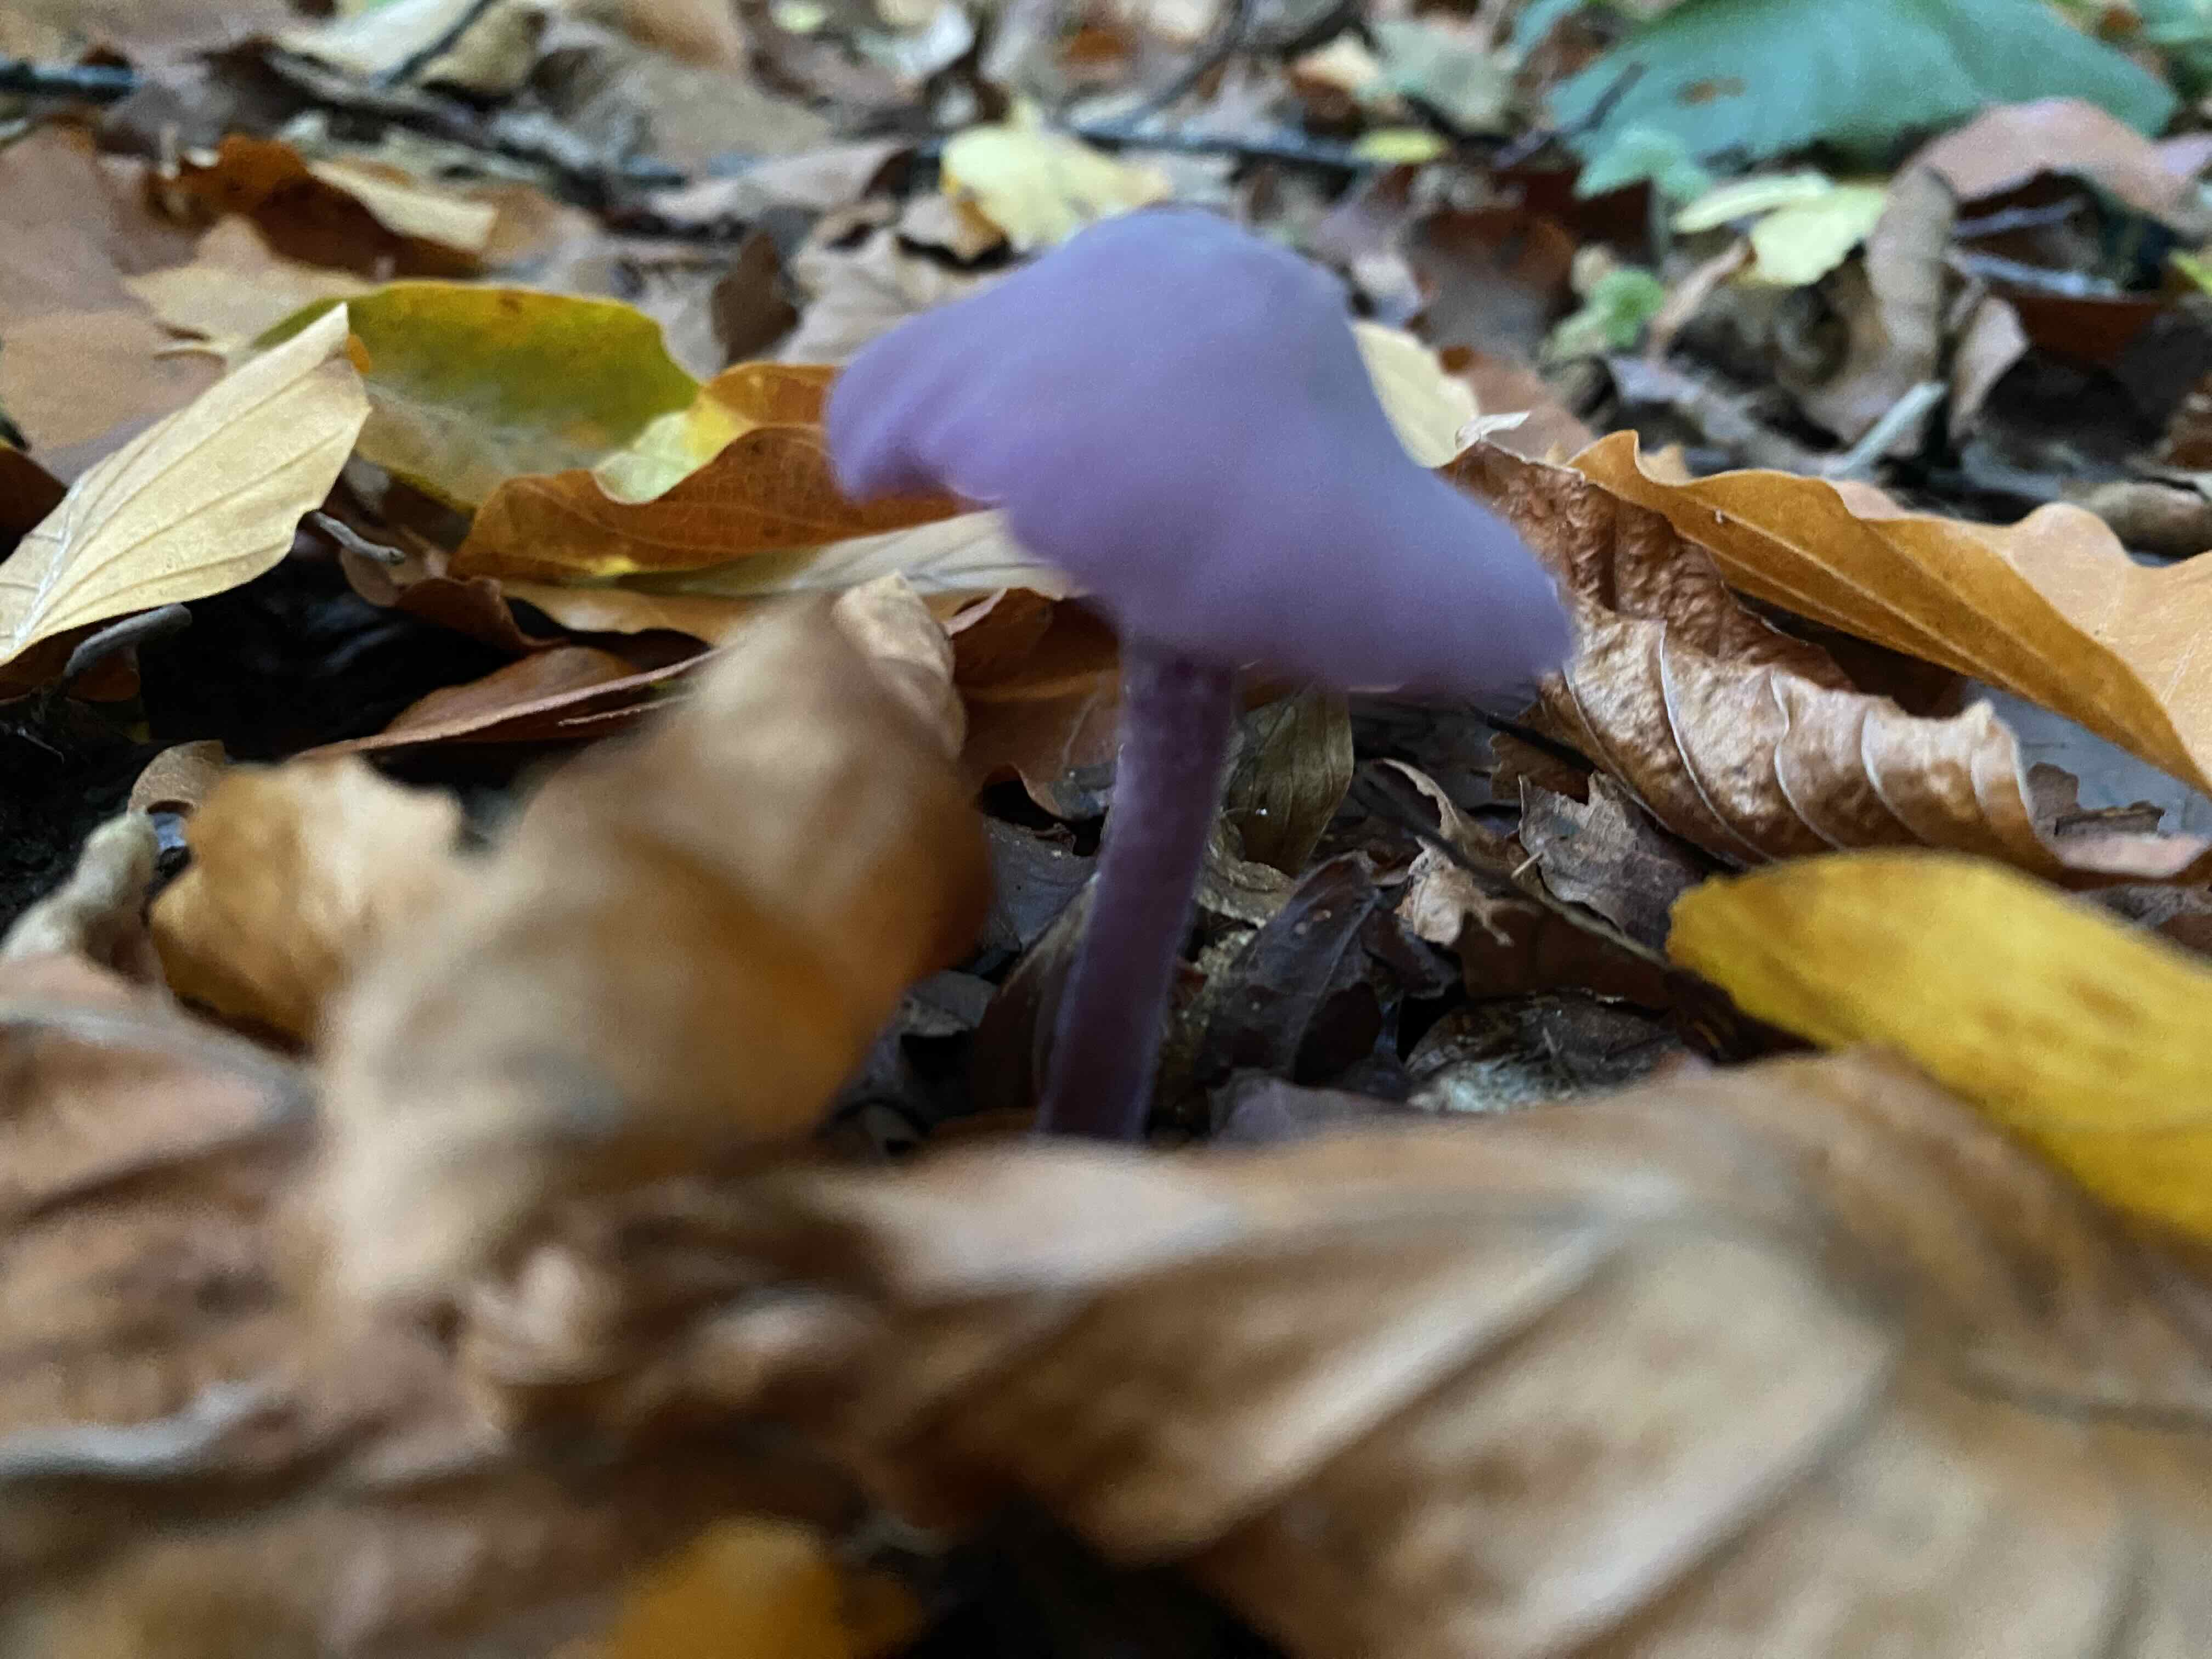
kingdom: Fungi
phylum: Basidiomycota
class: Agaricomycetes
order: Agaricales
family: Hydnangiaceae
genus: Laccaria
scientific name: Laccaria amethystina
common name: violet ametysthat
